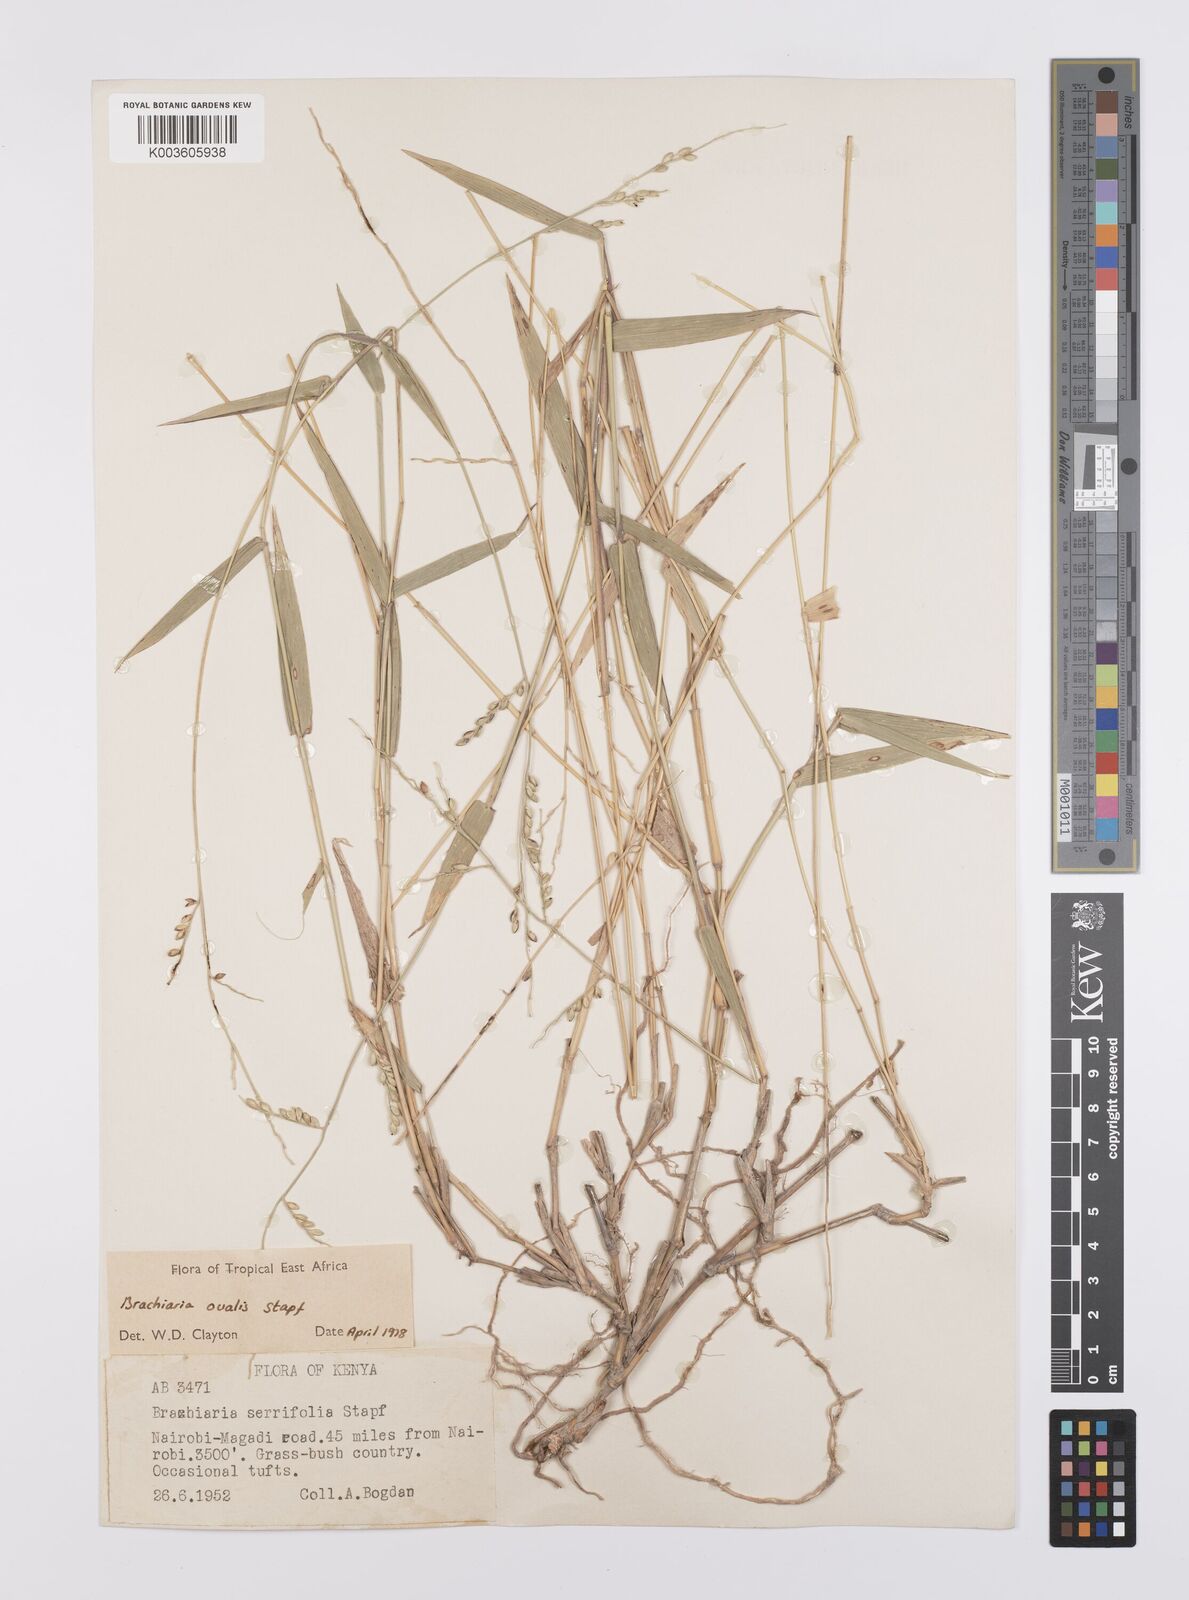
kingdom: Plantae
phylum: Tracheophyta
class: Liliopsida
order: Poales
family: Poaceae
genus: Urochloa
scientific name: Urochloa ovalis
